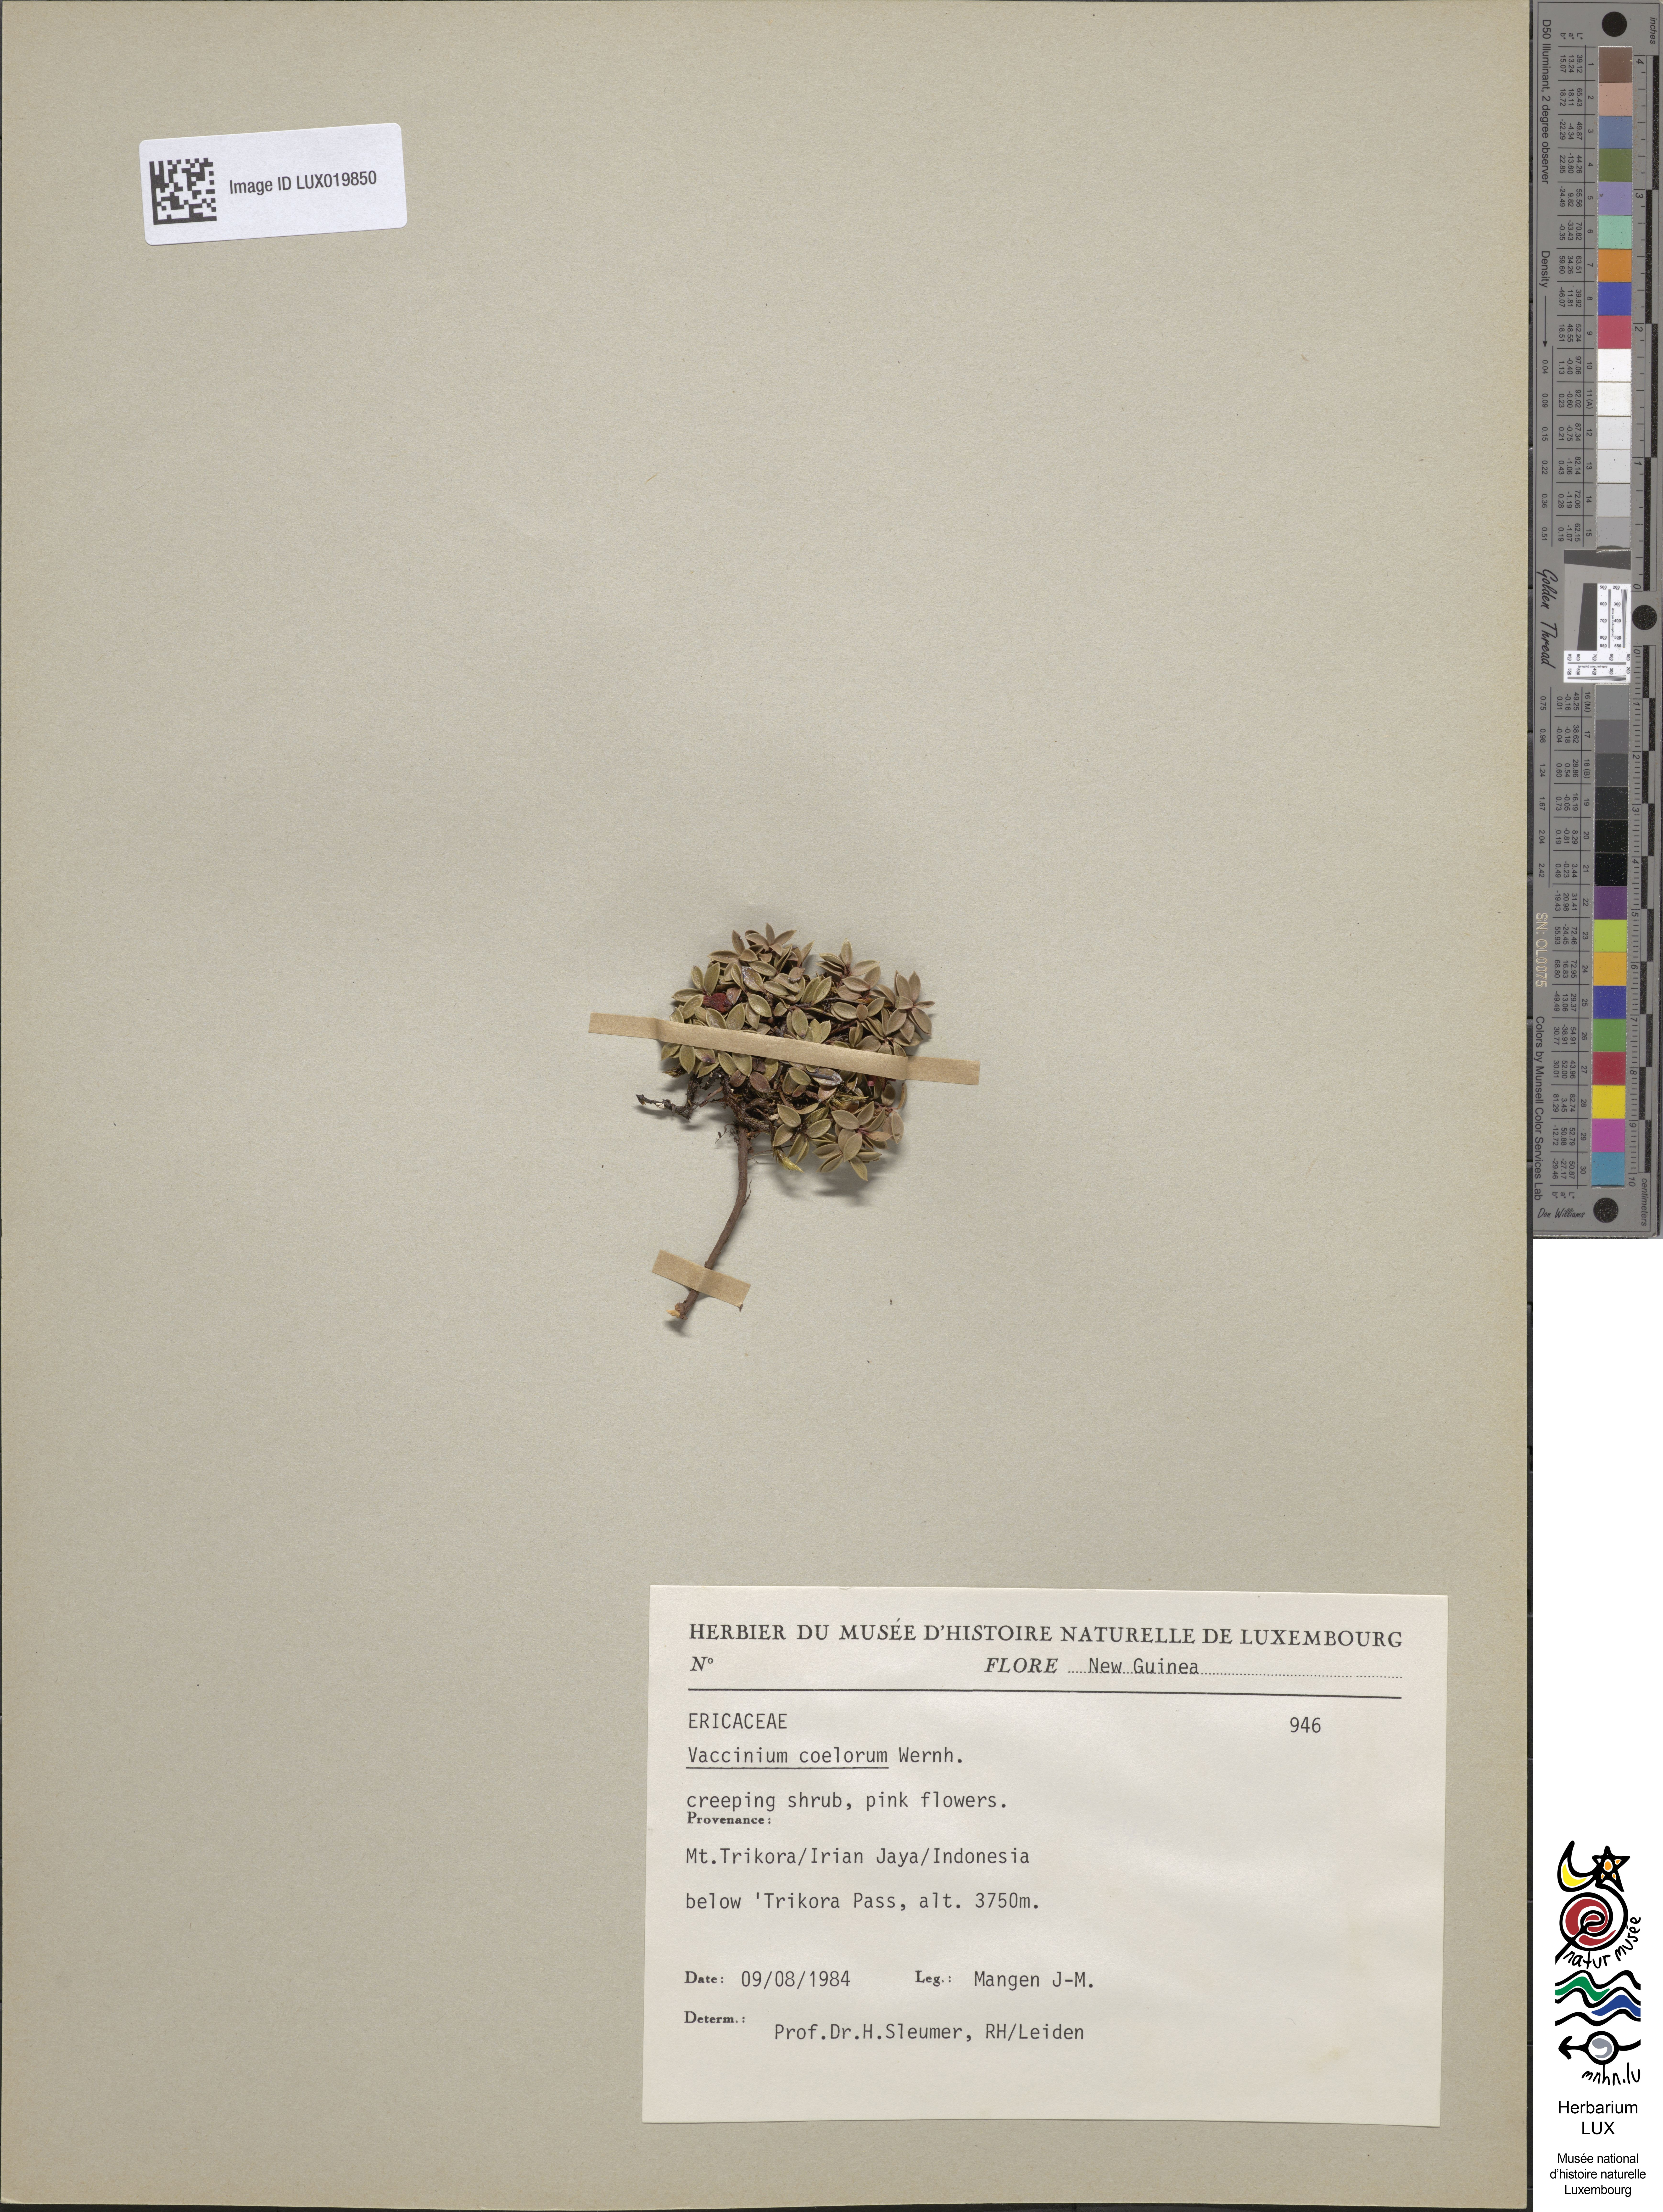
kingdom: Plantae
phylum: Tracheophyta
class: Magnoliopsida
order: Ericales
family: Ericaceae
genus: Vaccinium
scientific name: Vaccinium coelorum
